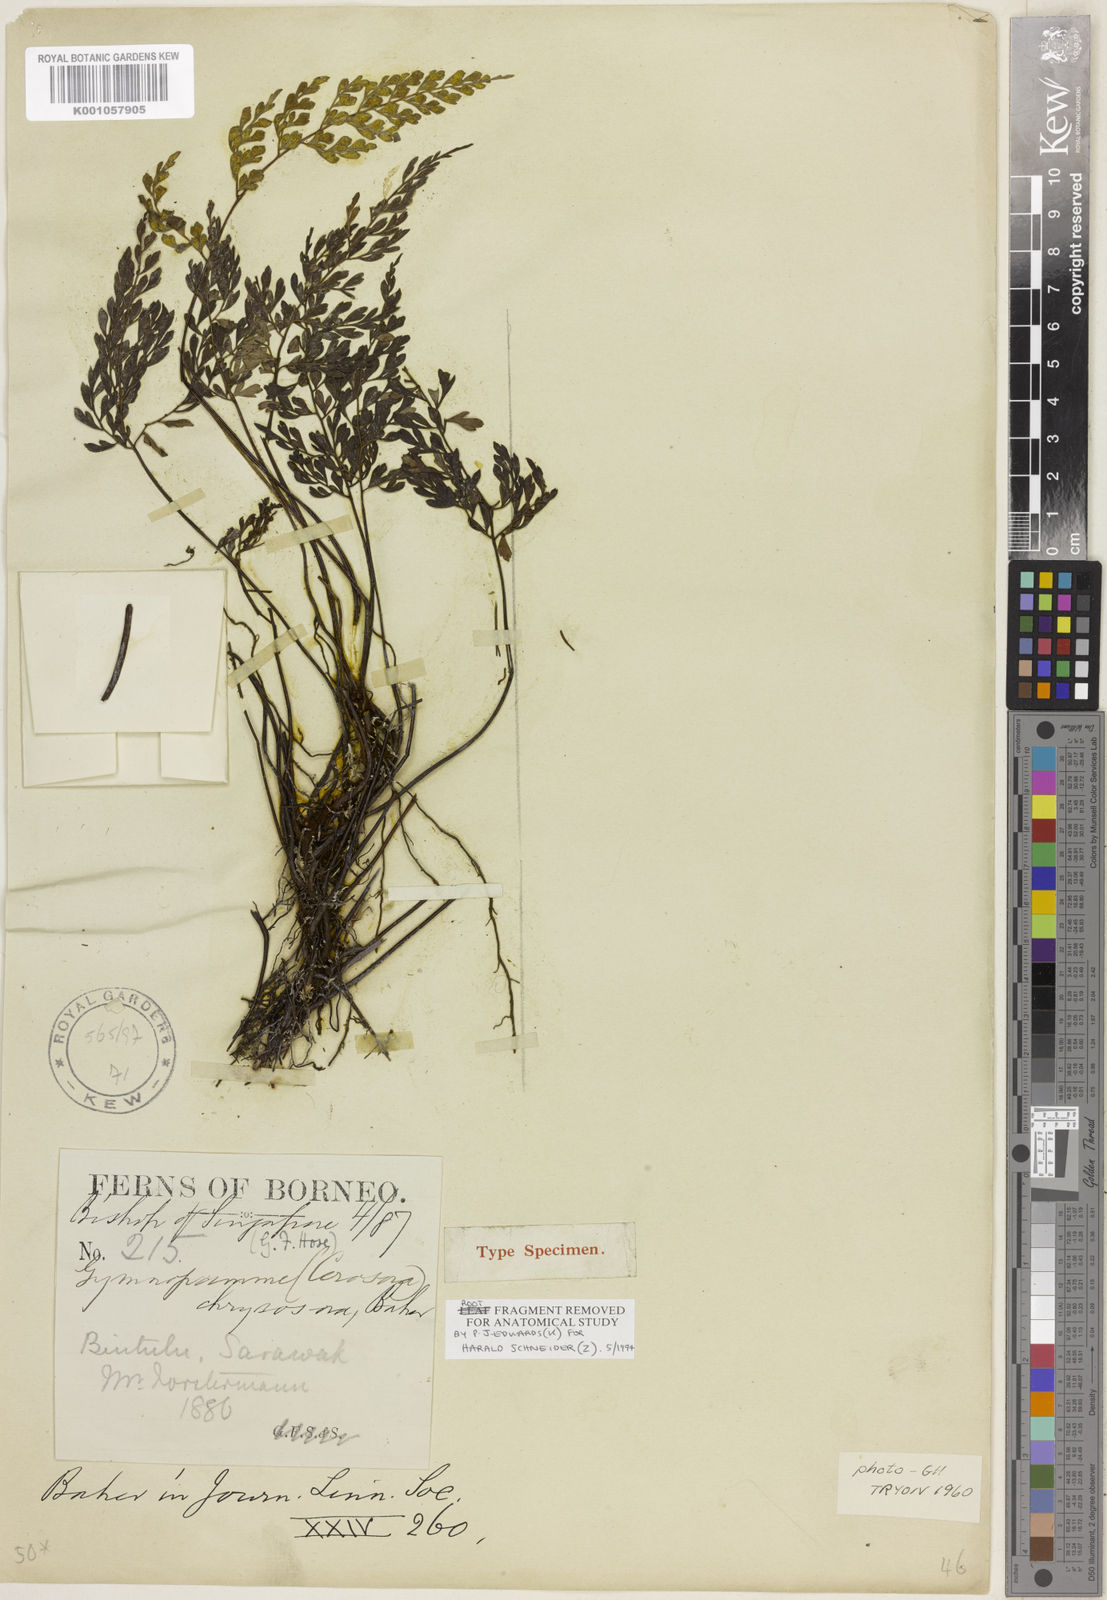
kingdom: Plantae
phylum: Tracheophyta
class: Polypodiopsida
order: Polypodiales
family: Pteridaceae
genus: Cerosora
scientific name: Cerosora chrysosora
